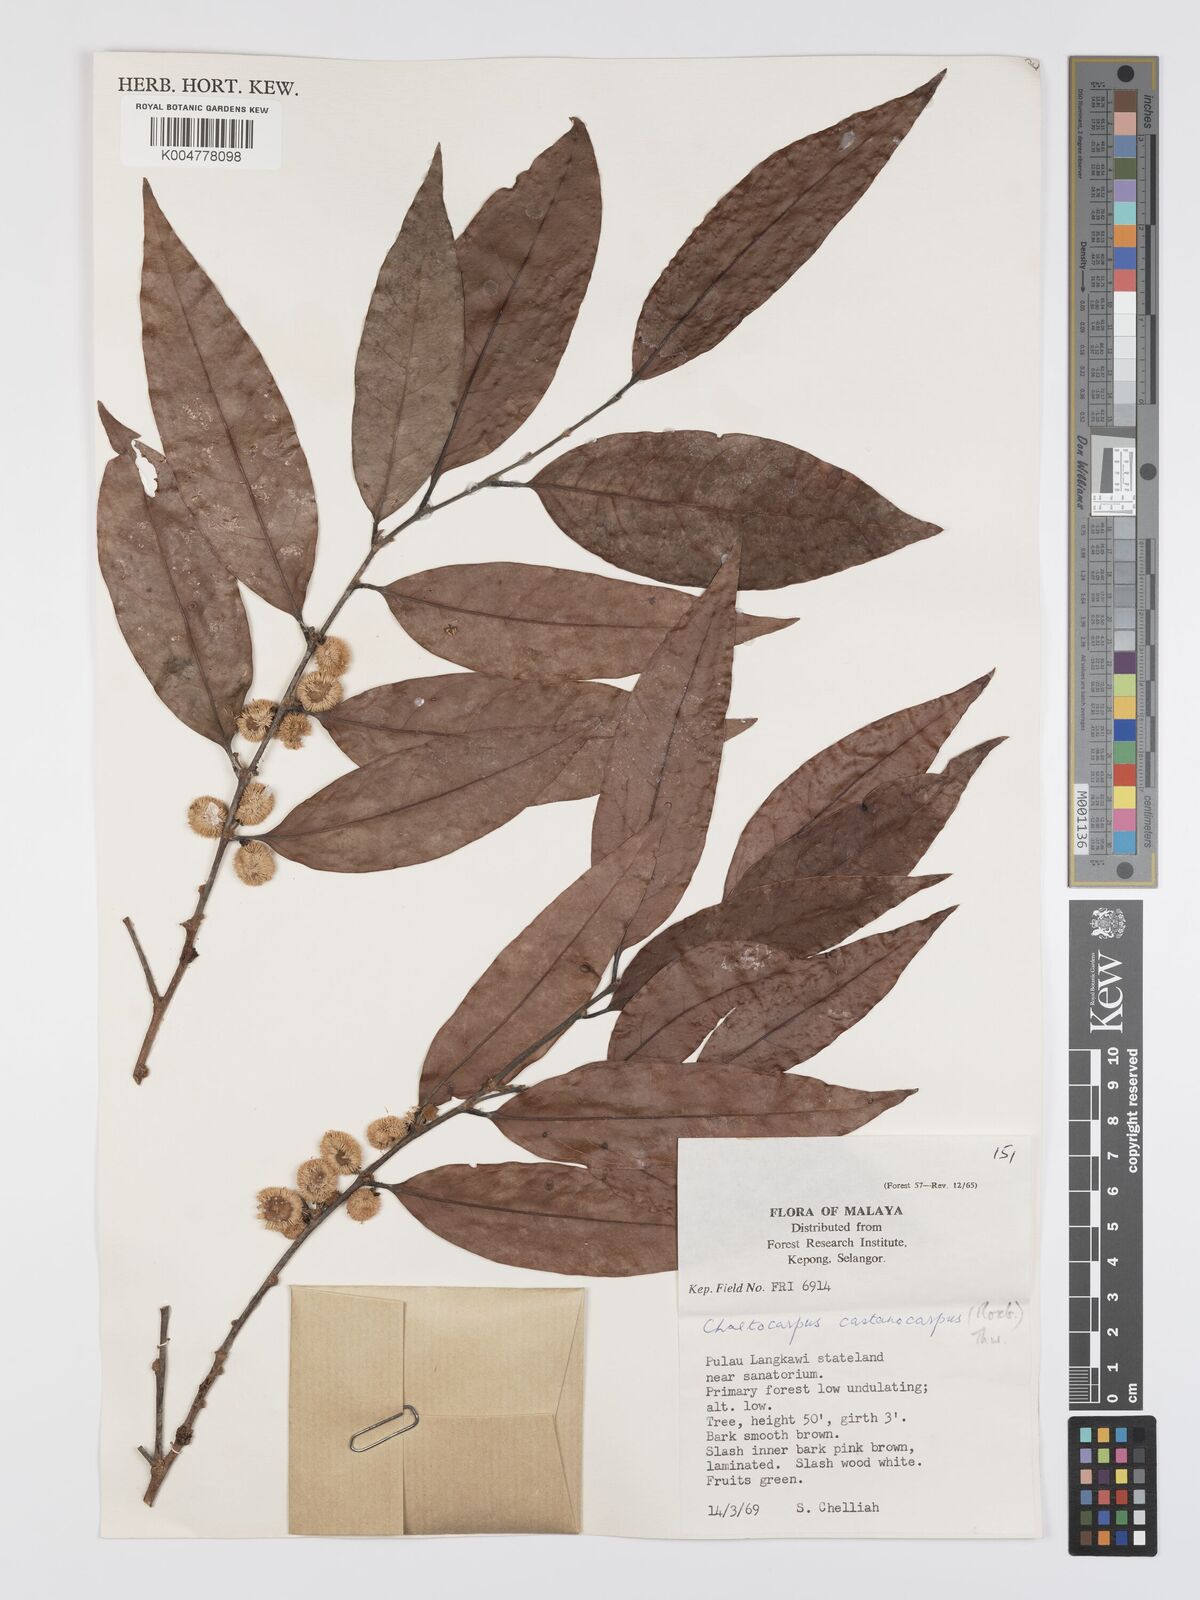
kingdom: Plantae
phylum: Tracheophyta
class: Magnoliopsida
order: Malpighiales
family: Peraceae
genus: Chaetocarpus
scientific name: Chaetocarpus castanocarpus
